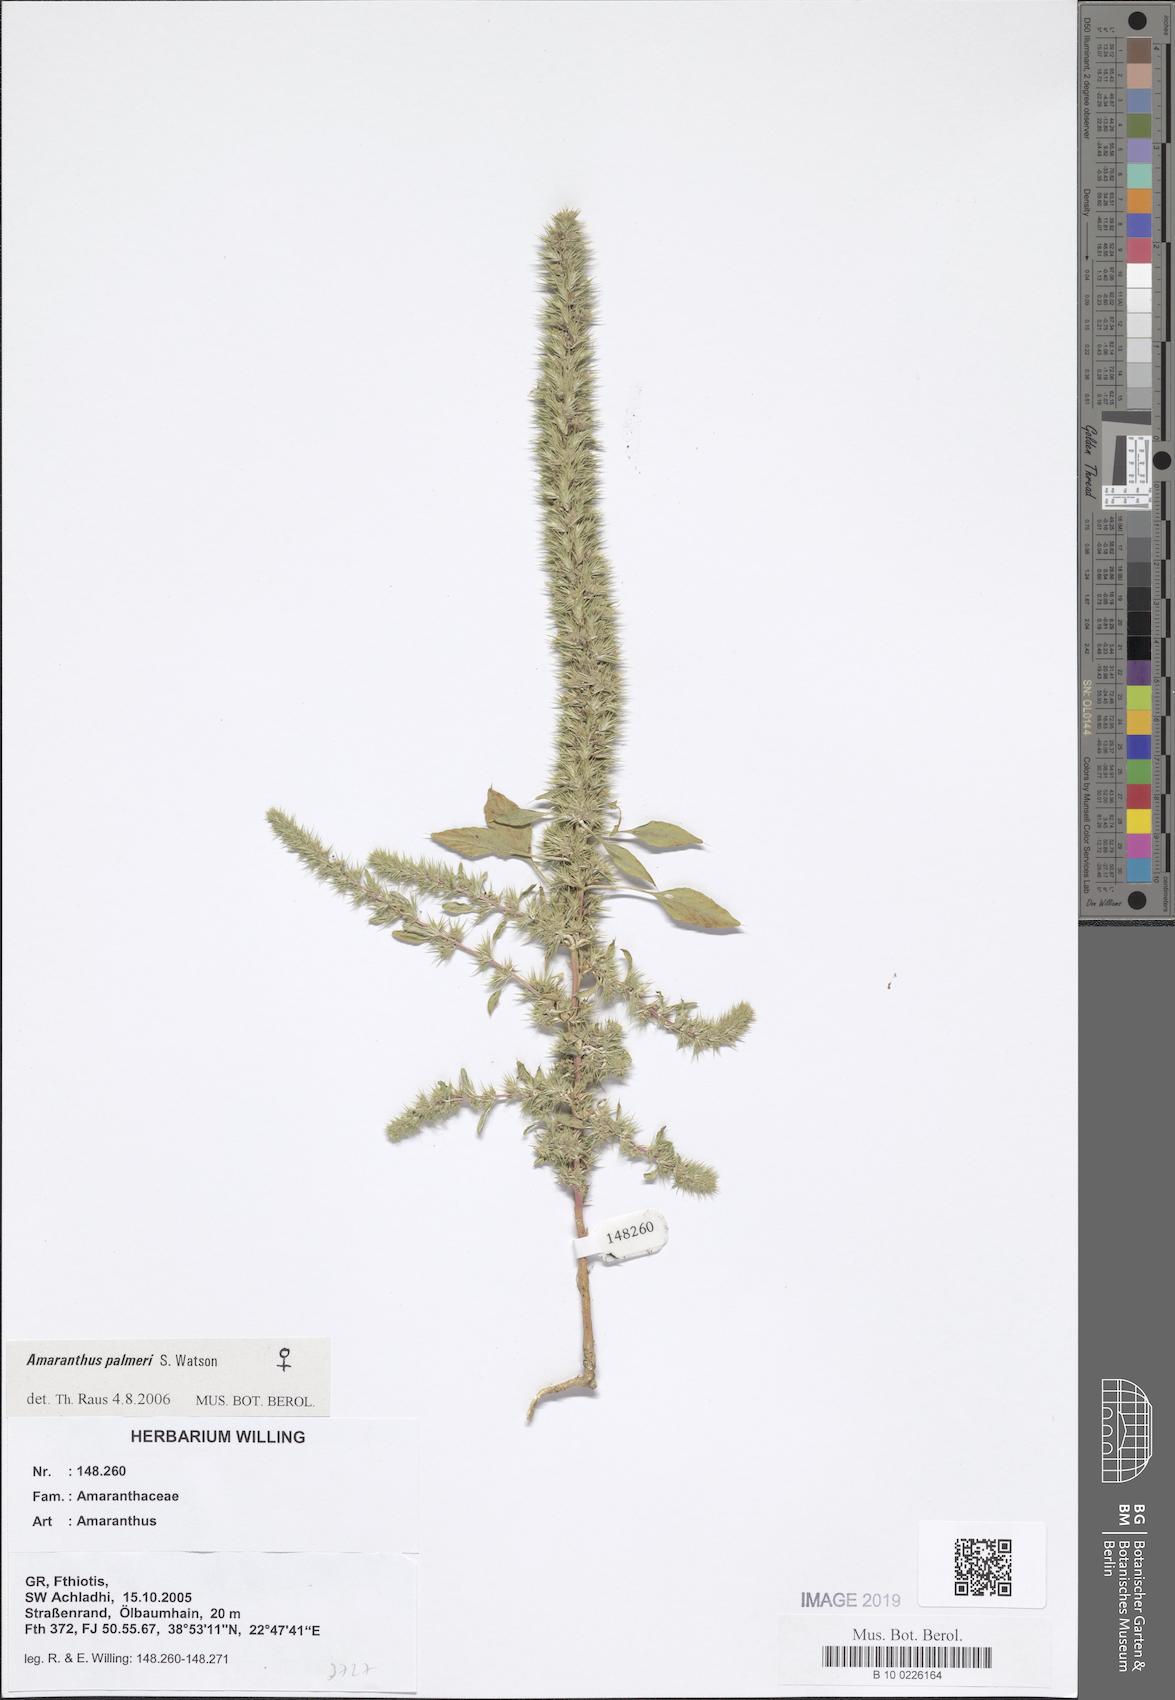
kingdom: Plantae
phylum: Tracheophyta
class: Magnoliopsida
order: Saxifragales
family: Saxifragaceae
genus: Saxifraga
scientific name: Saxifraga juniperifolia
